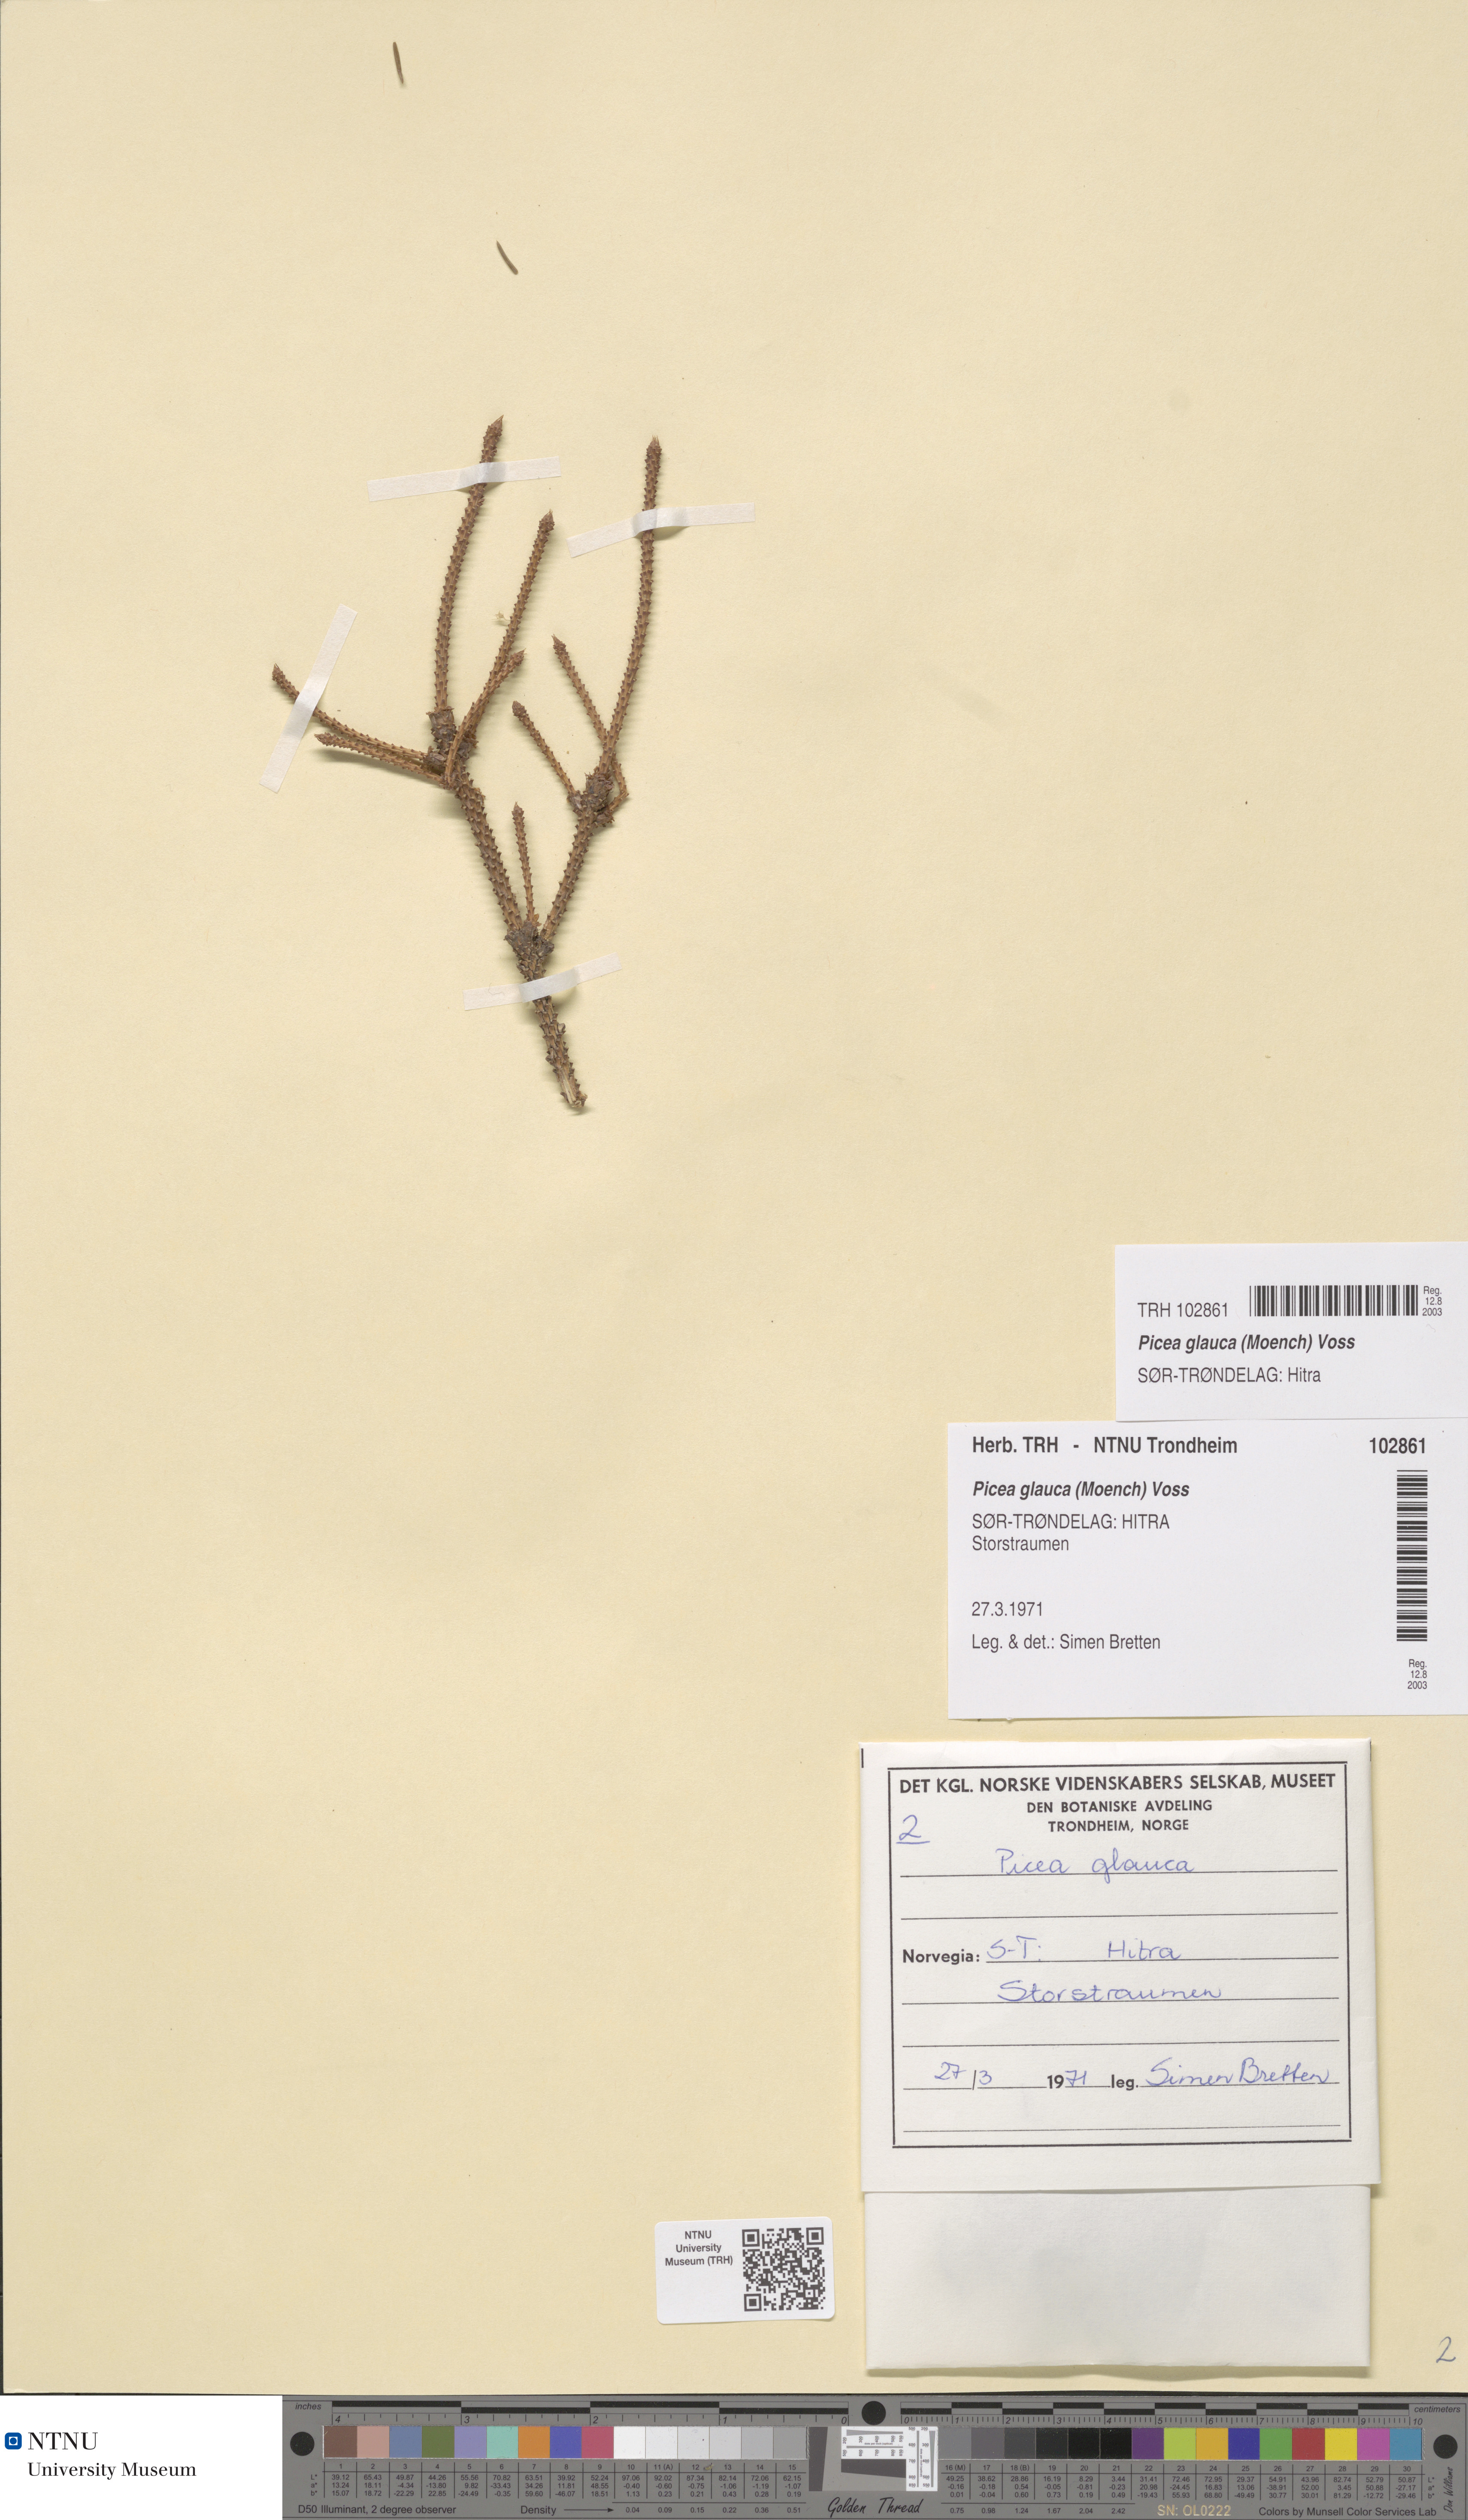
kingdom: Plantae
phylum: Tracheophyta
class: Pinopsida
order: Pinales
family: Pinaceae
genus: Picea
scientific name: Picea glauca
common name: White spruce
